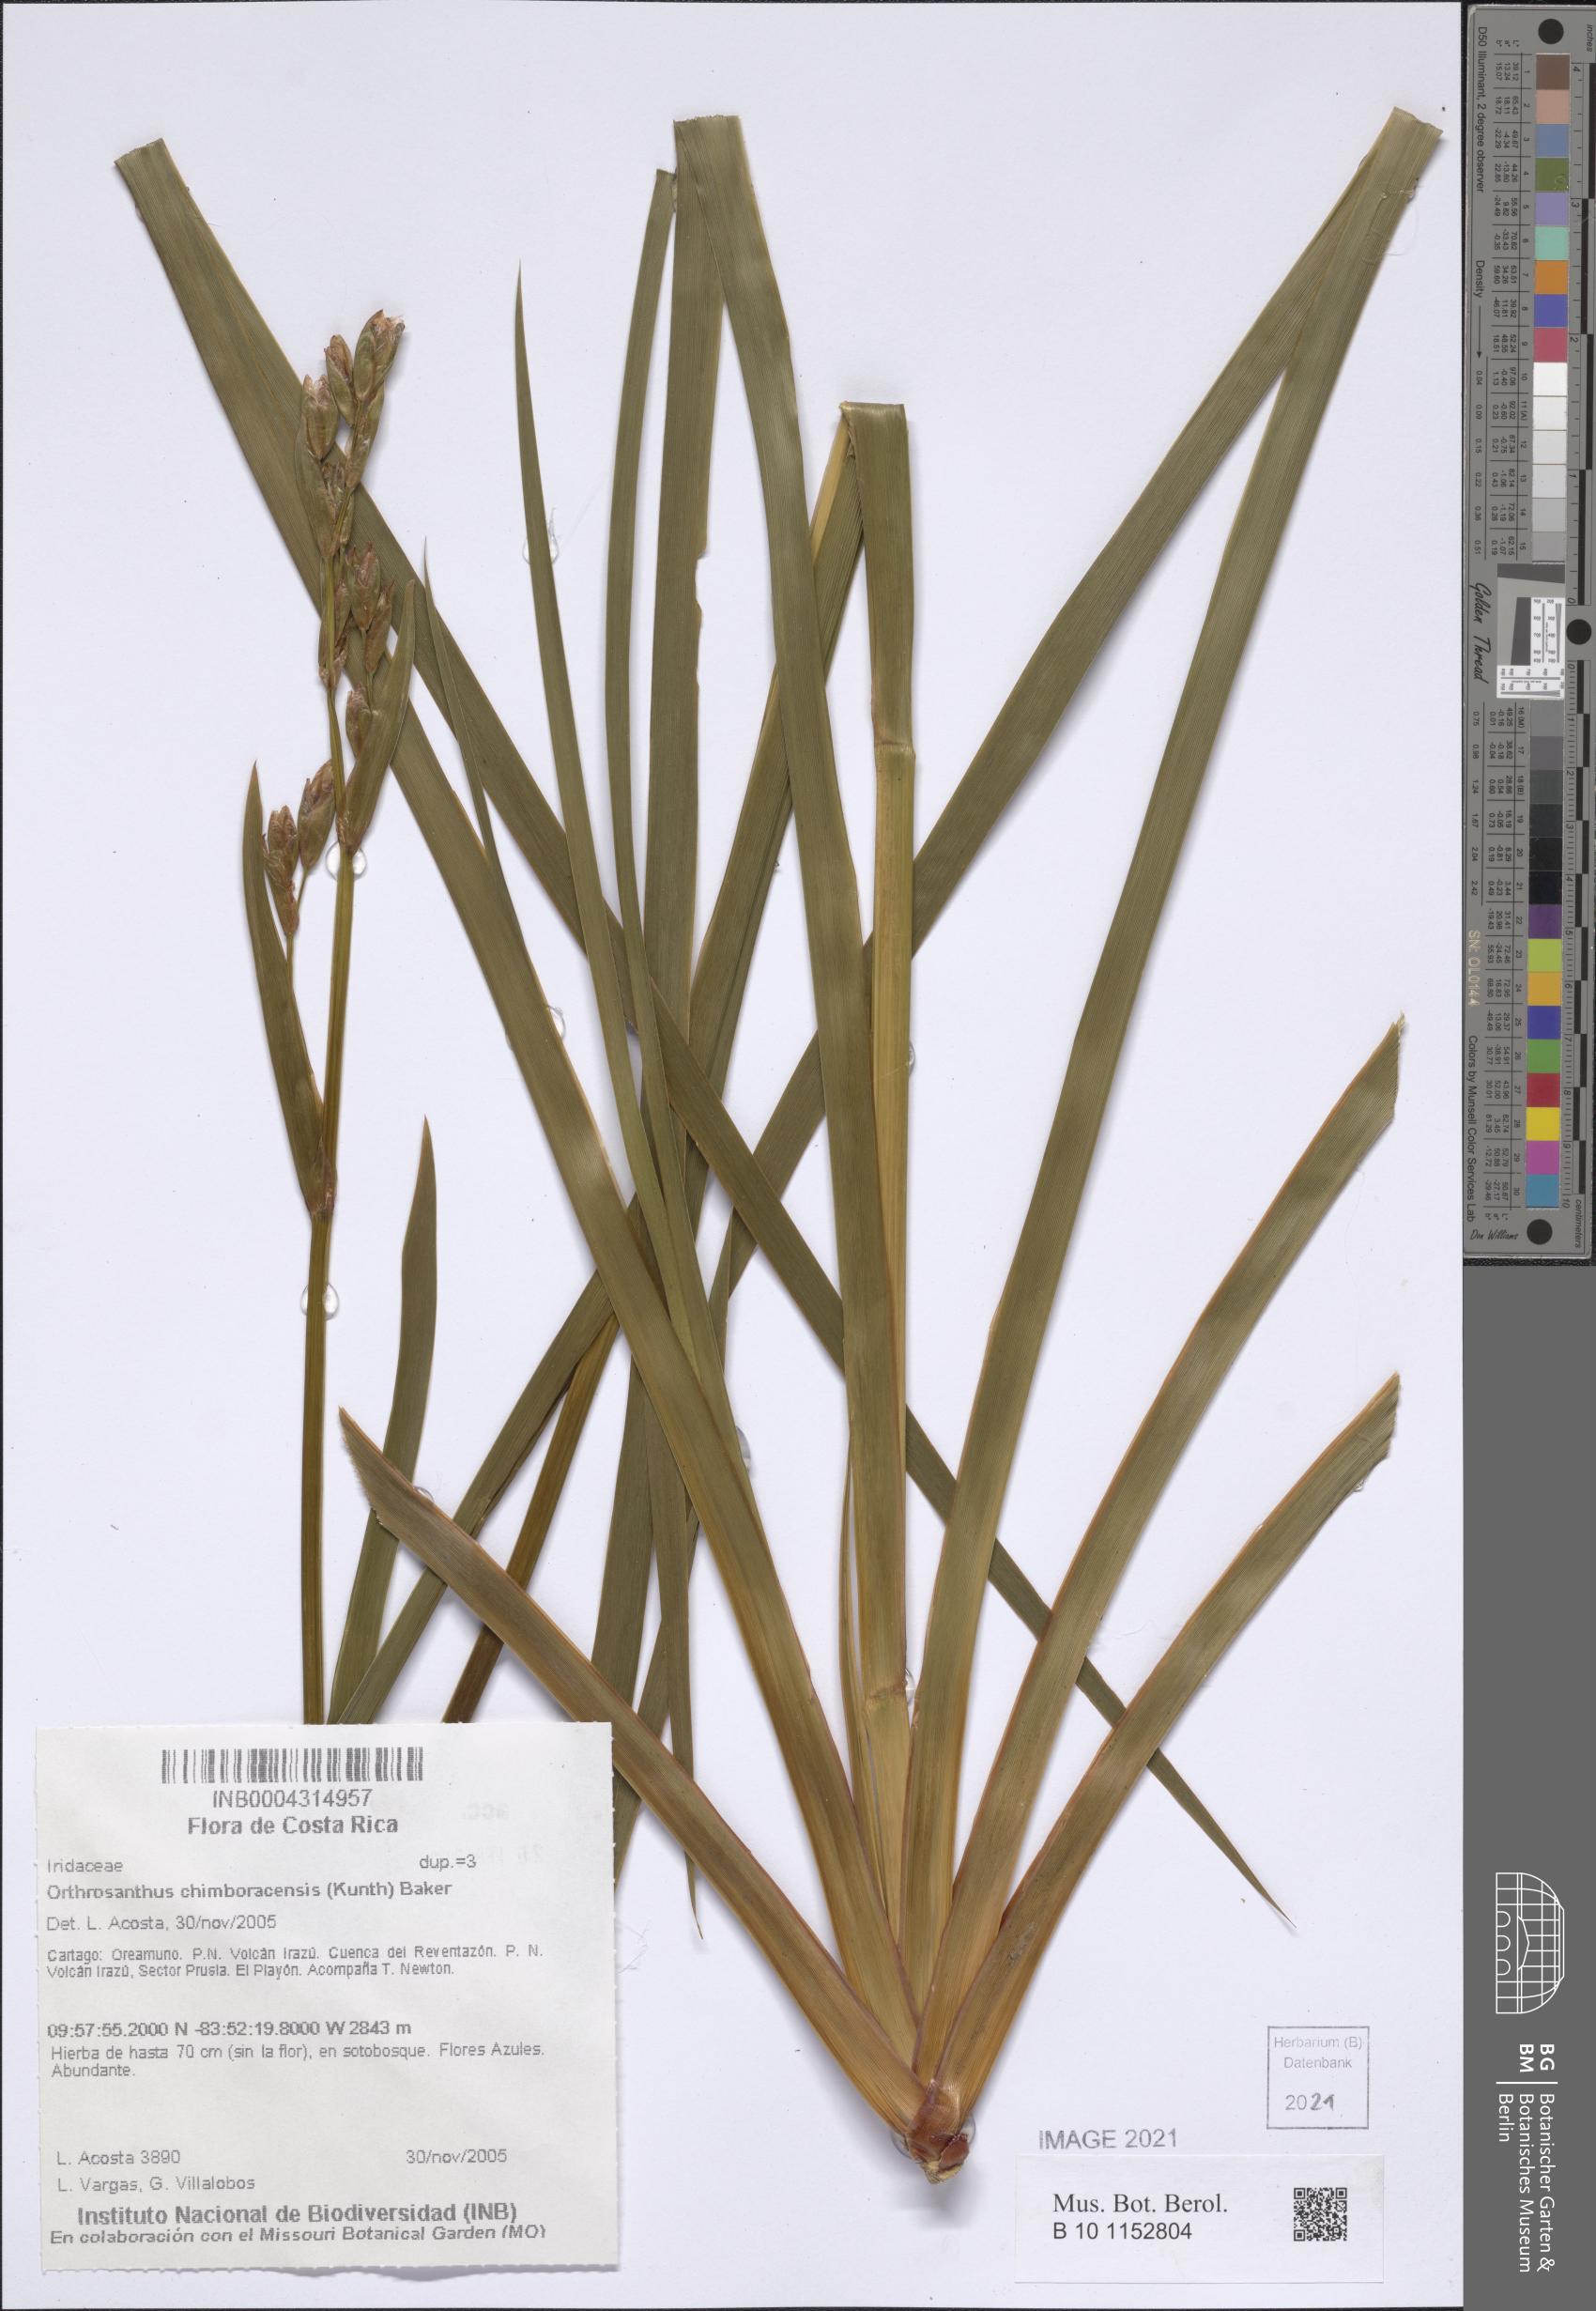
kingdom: Plantae
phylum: Tracheophyta
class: Liliopsida
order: Asparagales
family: Iridaceae
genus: Orthrosanthus
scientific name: Orthrosanthus chimboracensis
